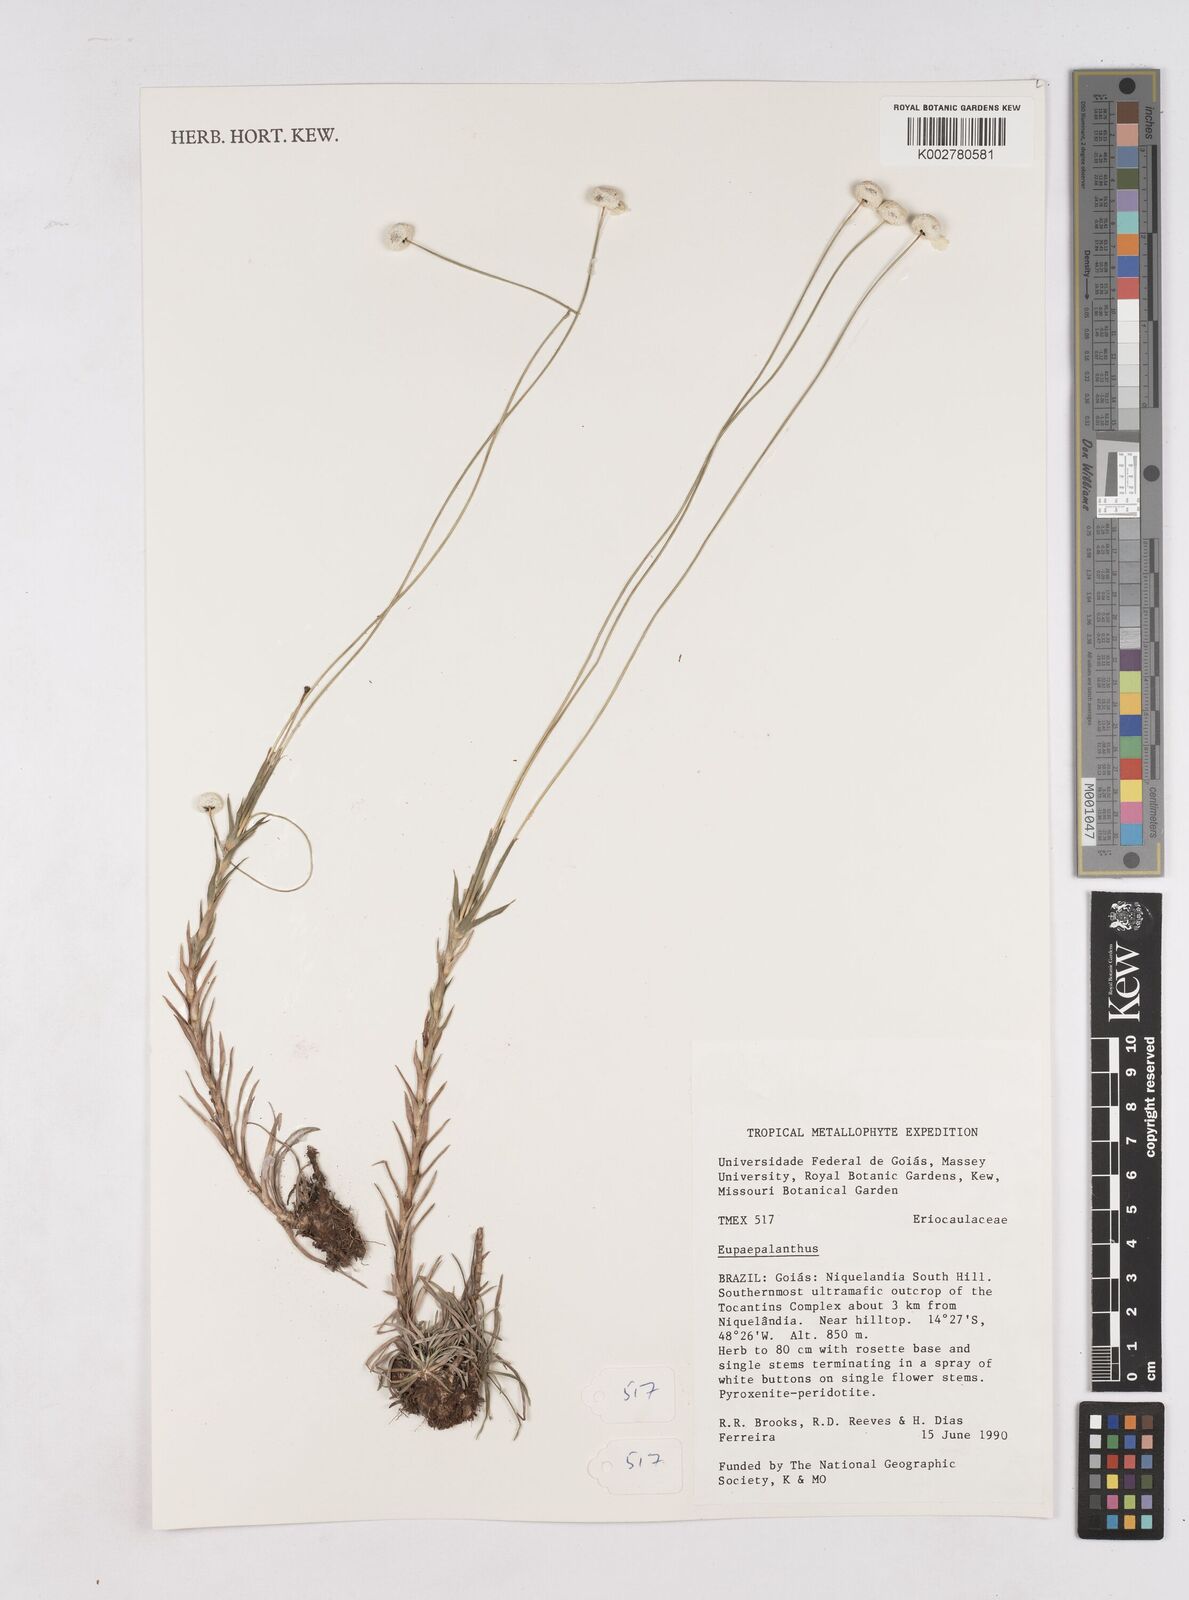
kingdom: Plantae
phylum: Tracheophyta
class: Liliopsida
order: Poales
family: Eriocaulaceae
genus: Paepalanthus
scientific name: Paepalanthus
